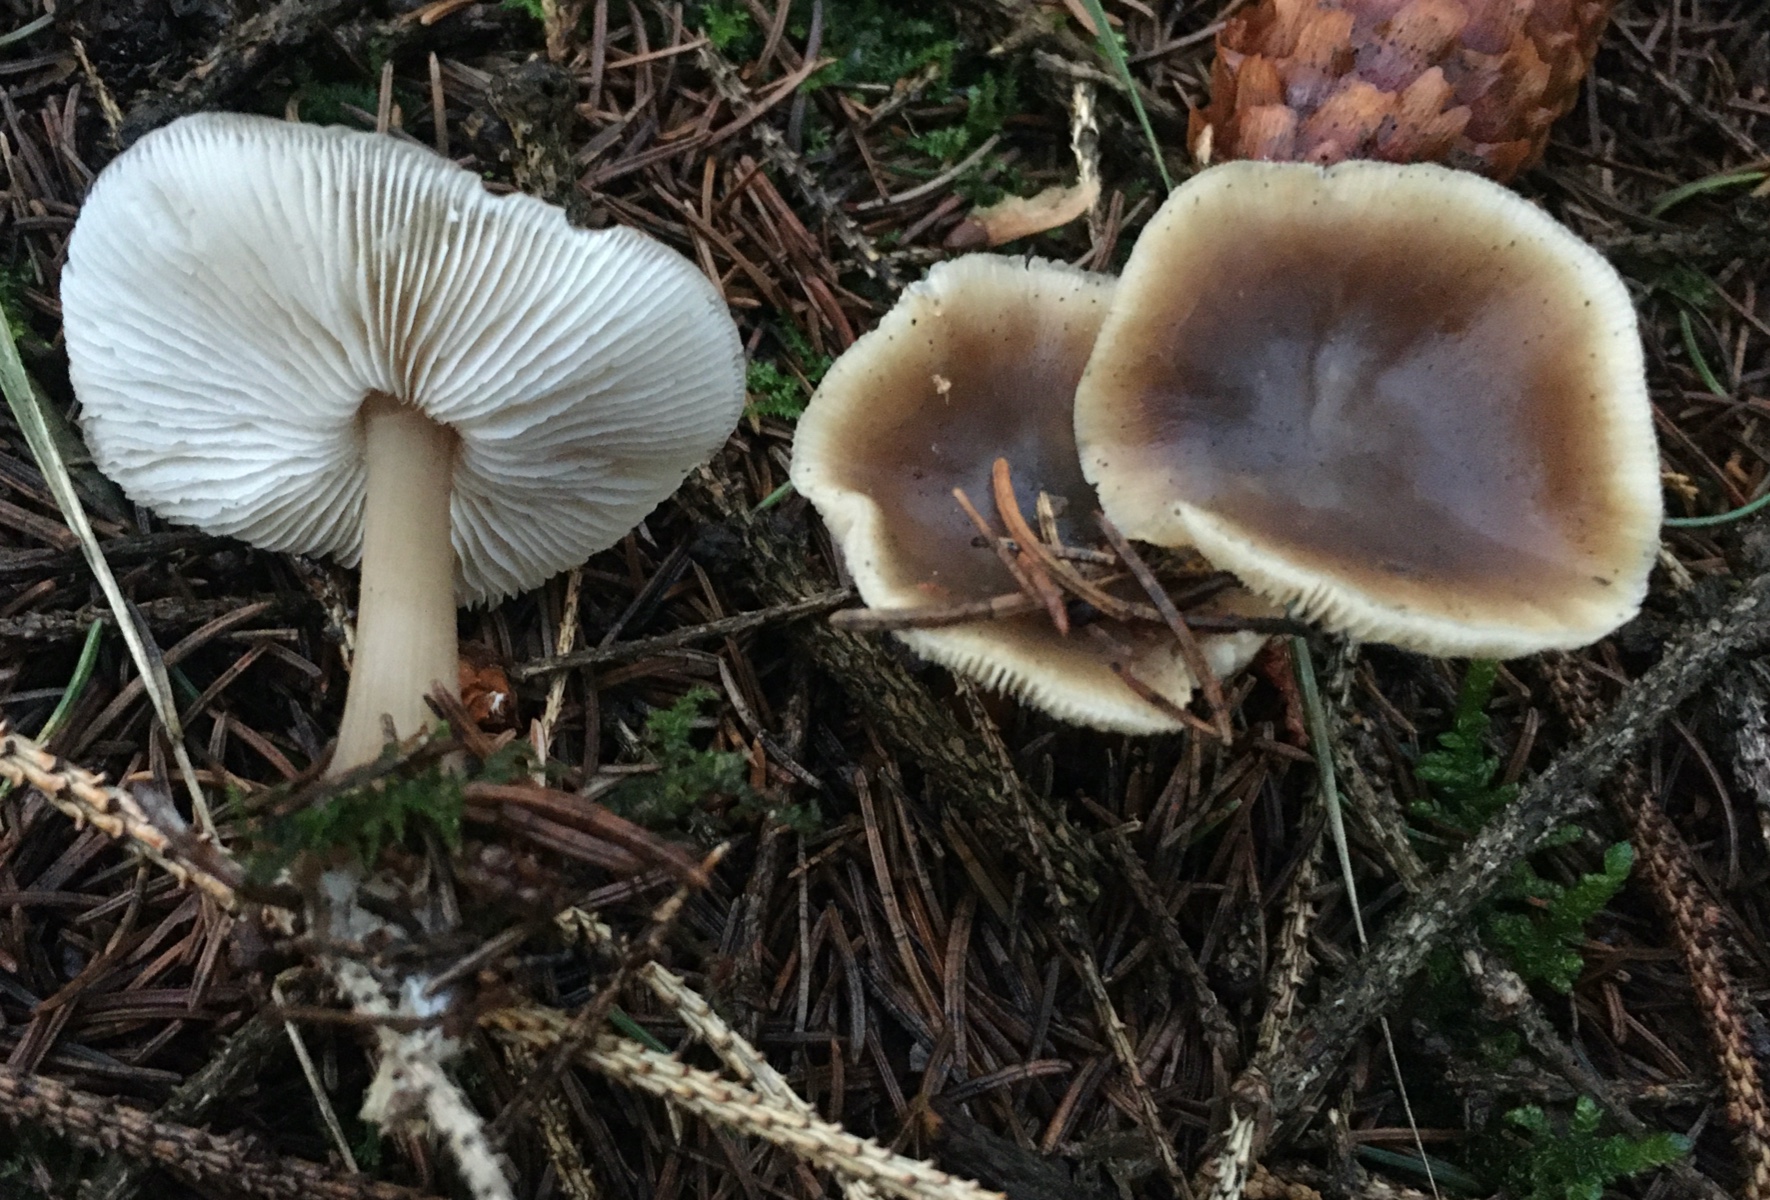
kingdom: Fungi
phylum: Basidiomycota
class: Agaricomycetes
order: Agaricales
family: Omphalotaceae
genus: Rhodocollybia
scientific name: Rhodocollybia asema
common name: horngrå fladhat
